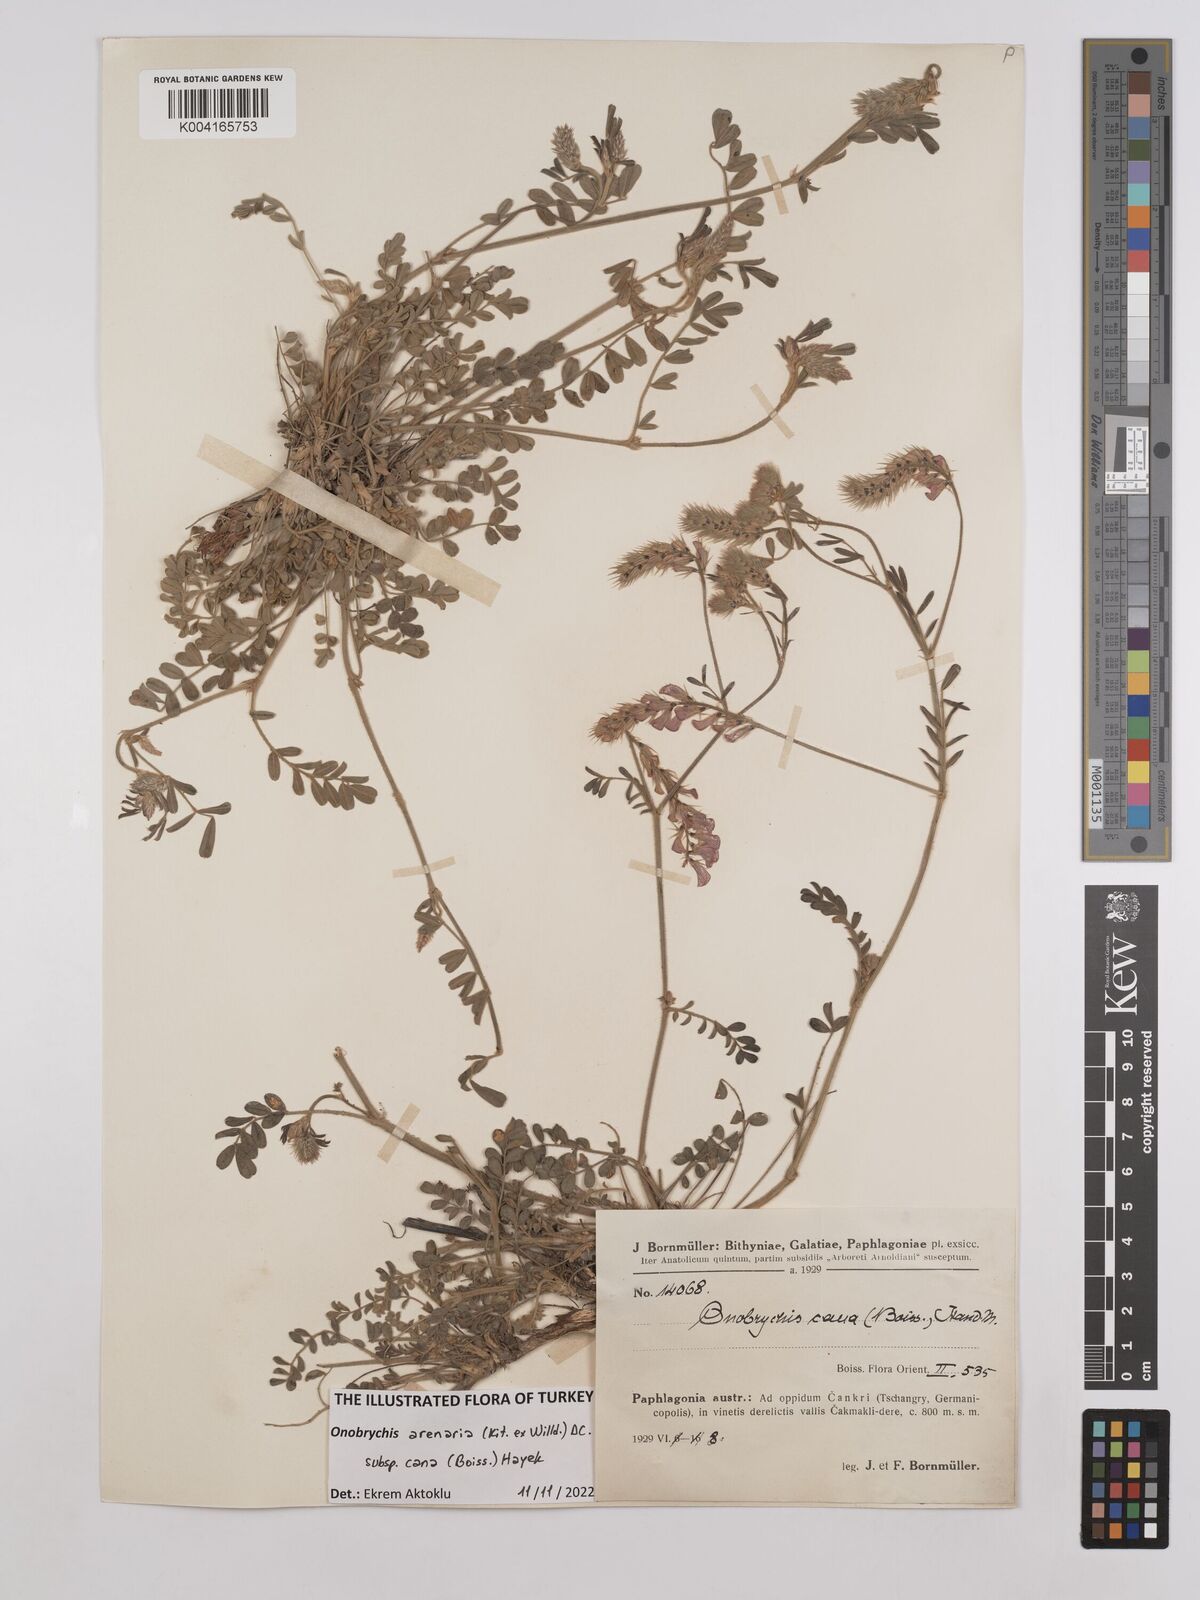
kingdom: Plantae
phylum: Tracheophyta
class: Magnoliopsida
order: Fabales
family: Fabaceae
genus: Onobrychis
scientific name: Onobrychis arenaria
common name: Sand esparcet
